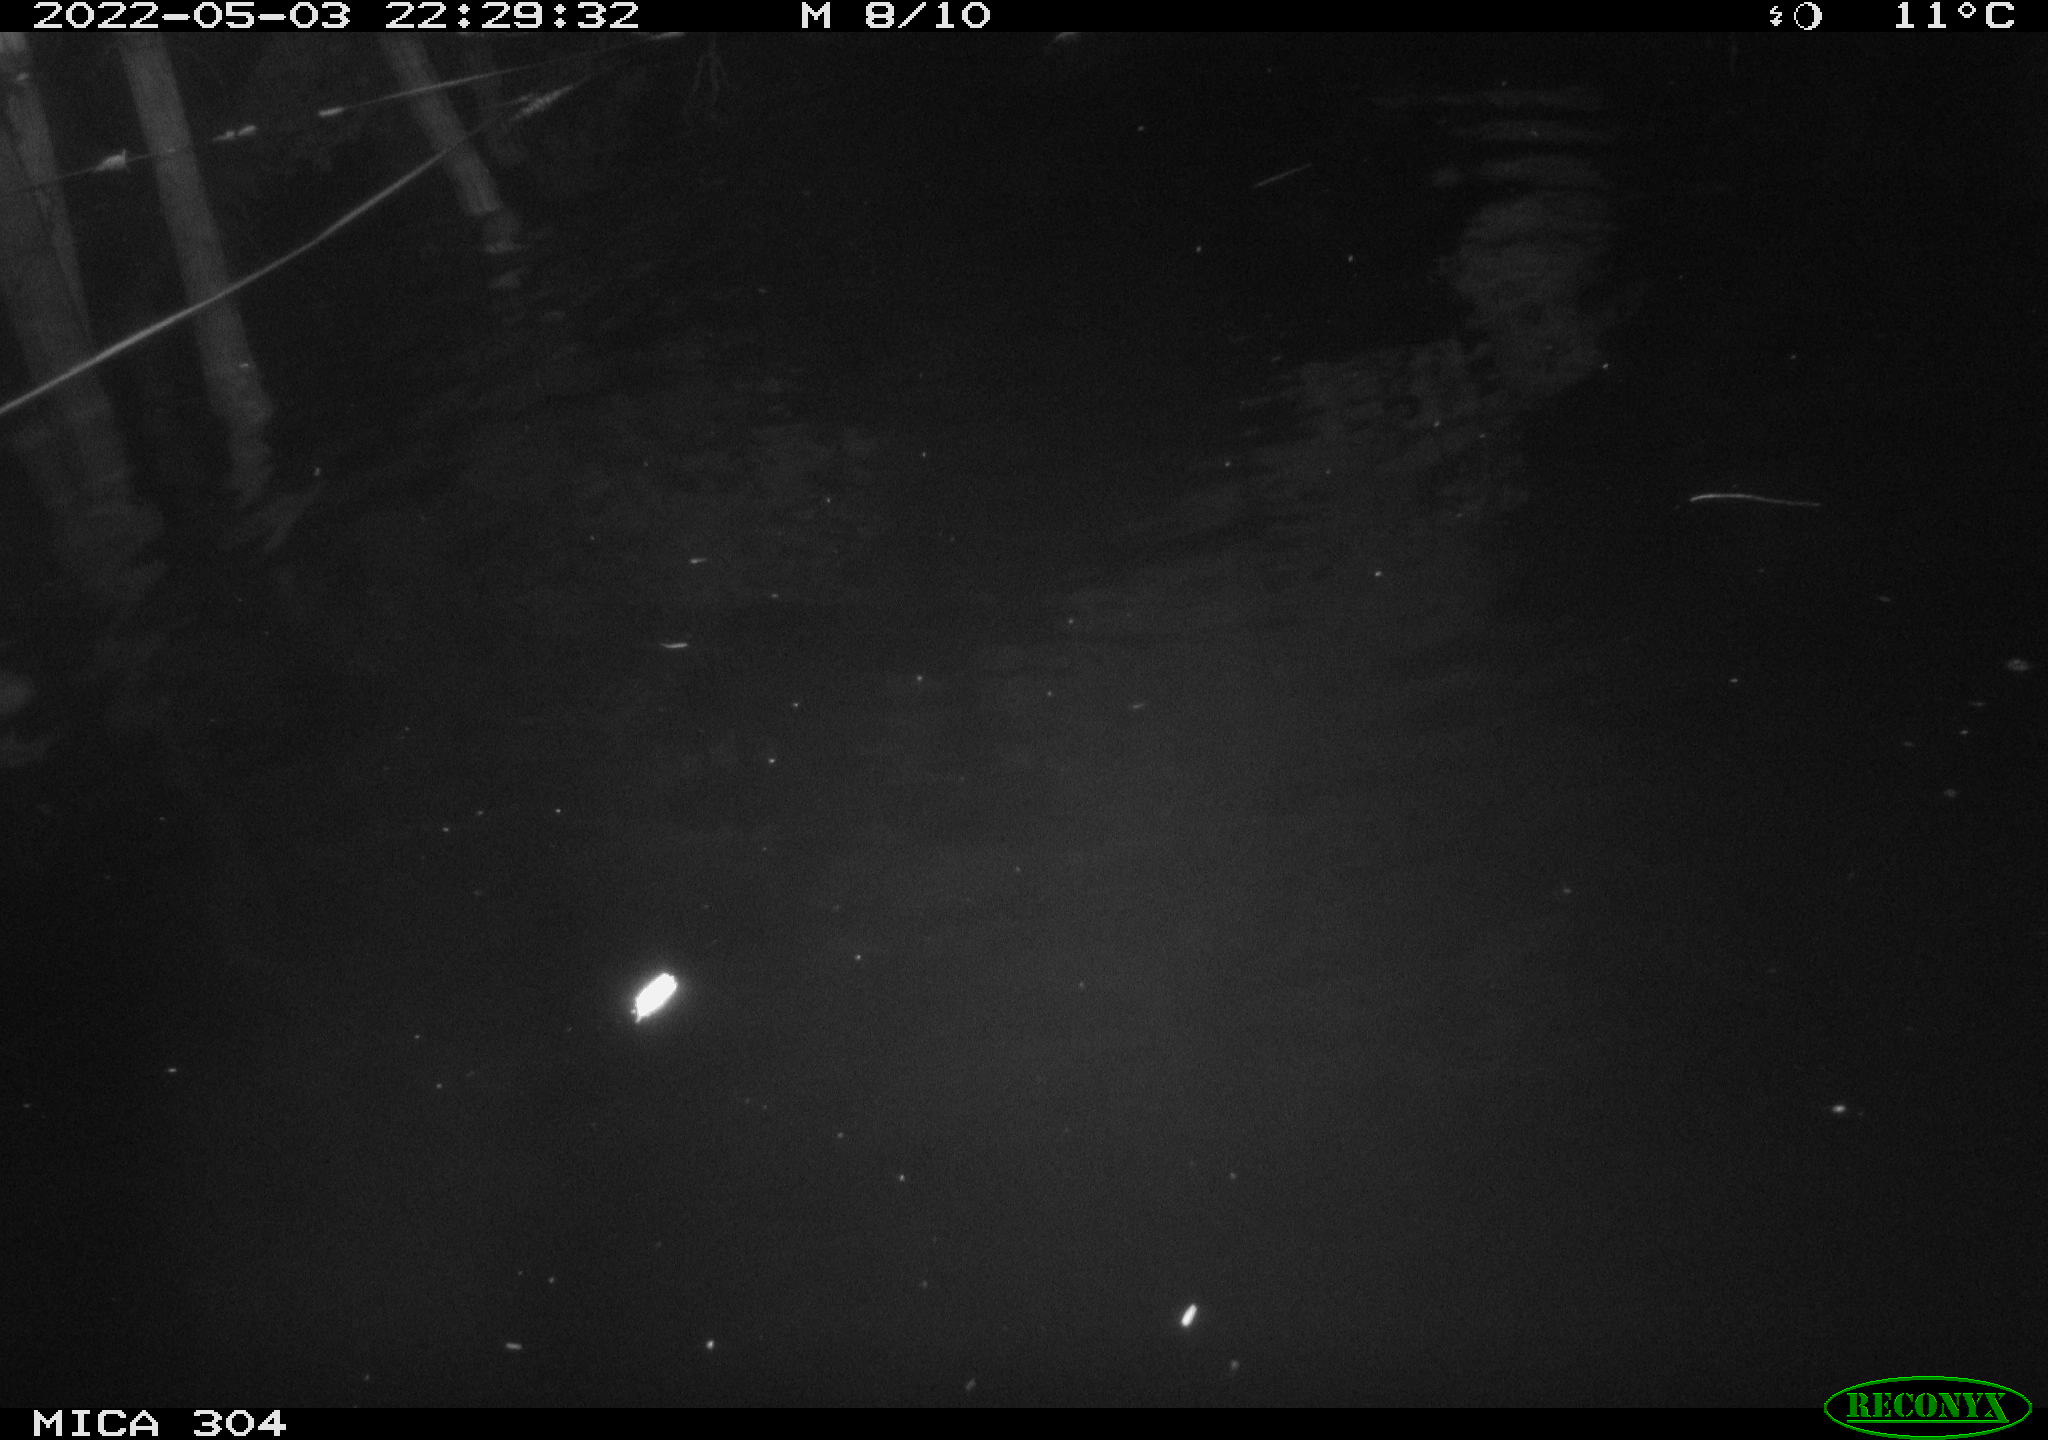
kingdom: Animalia
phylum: Chordata
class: Mammalia
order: Rodentia
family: Cricetidae
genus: Ondatra
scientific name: Ondatra zibethicus
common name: Muskrat
